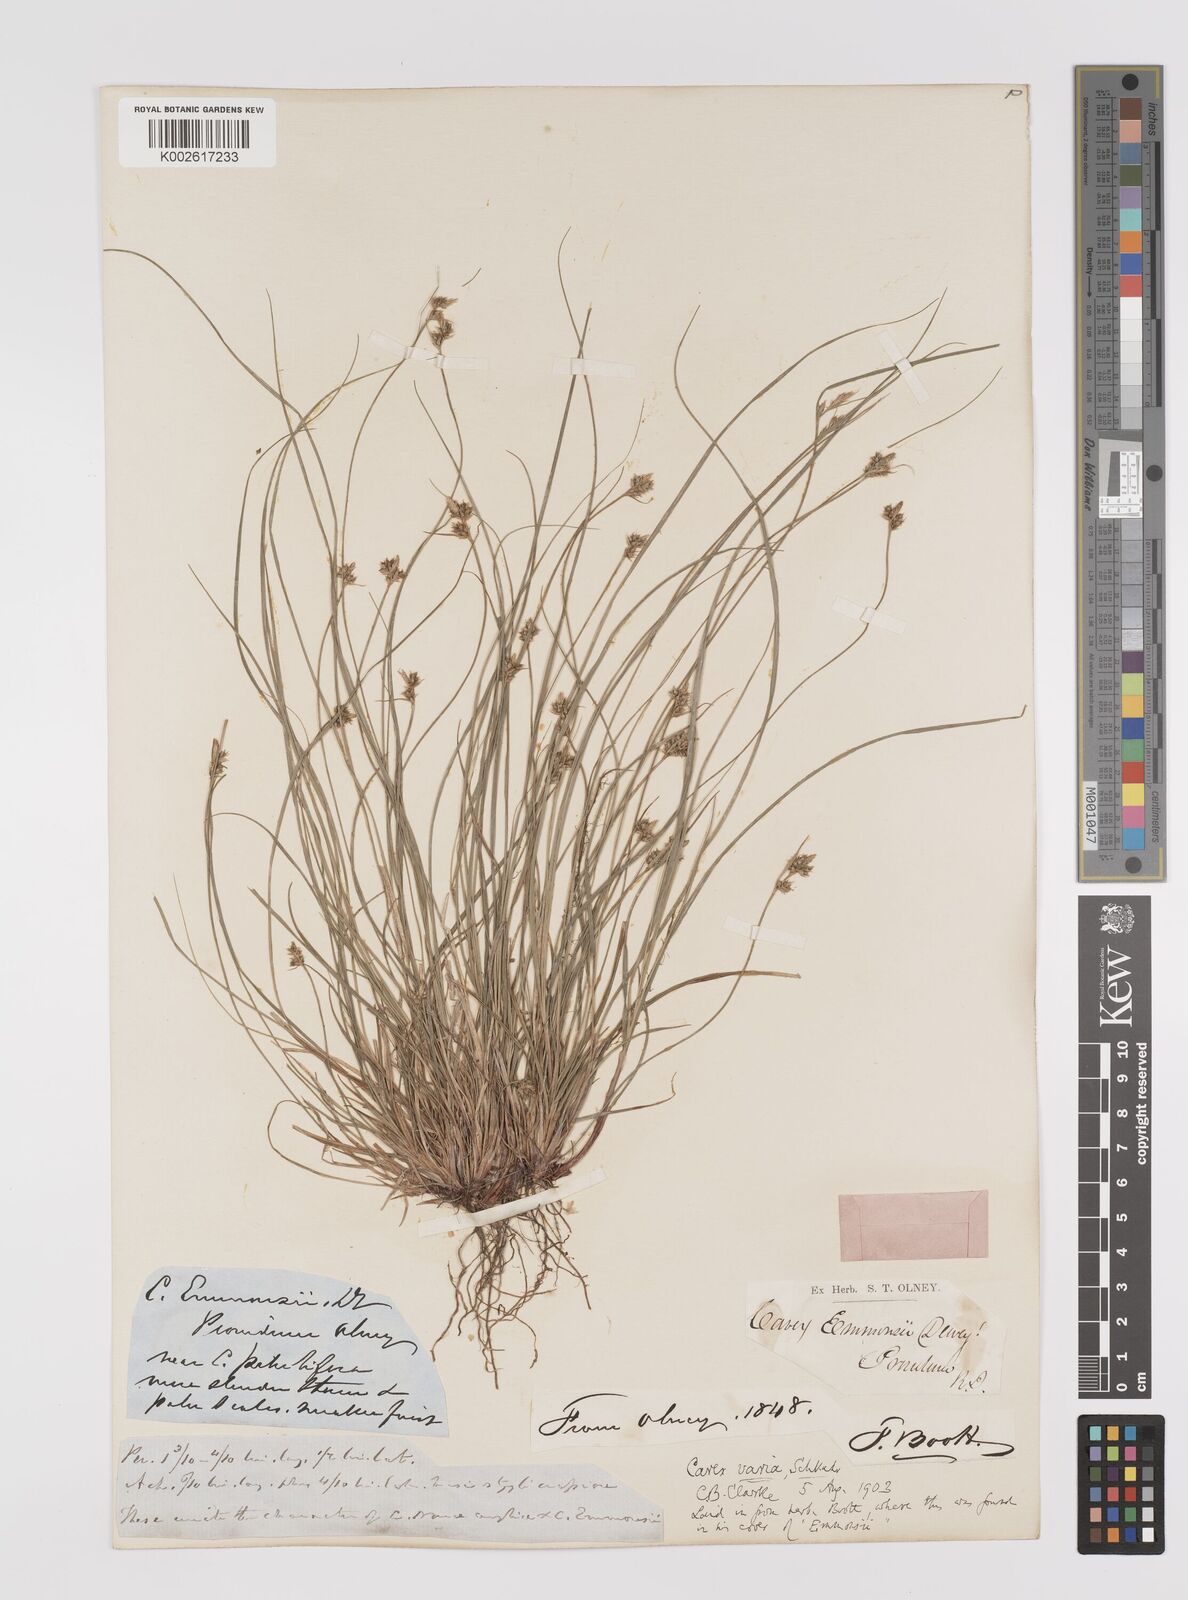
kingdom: Plantae
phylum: Tracheophyta
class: Liliopsida
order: Poales
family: Cyperaceae
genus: Carex
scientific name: Carex albicans
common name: Bellow-beaked sedge
